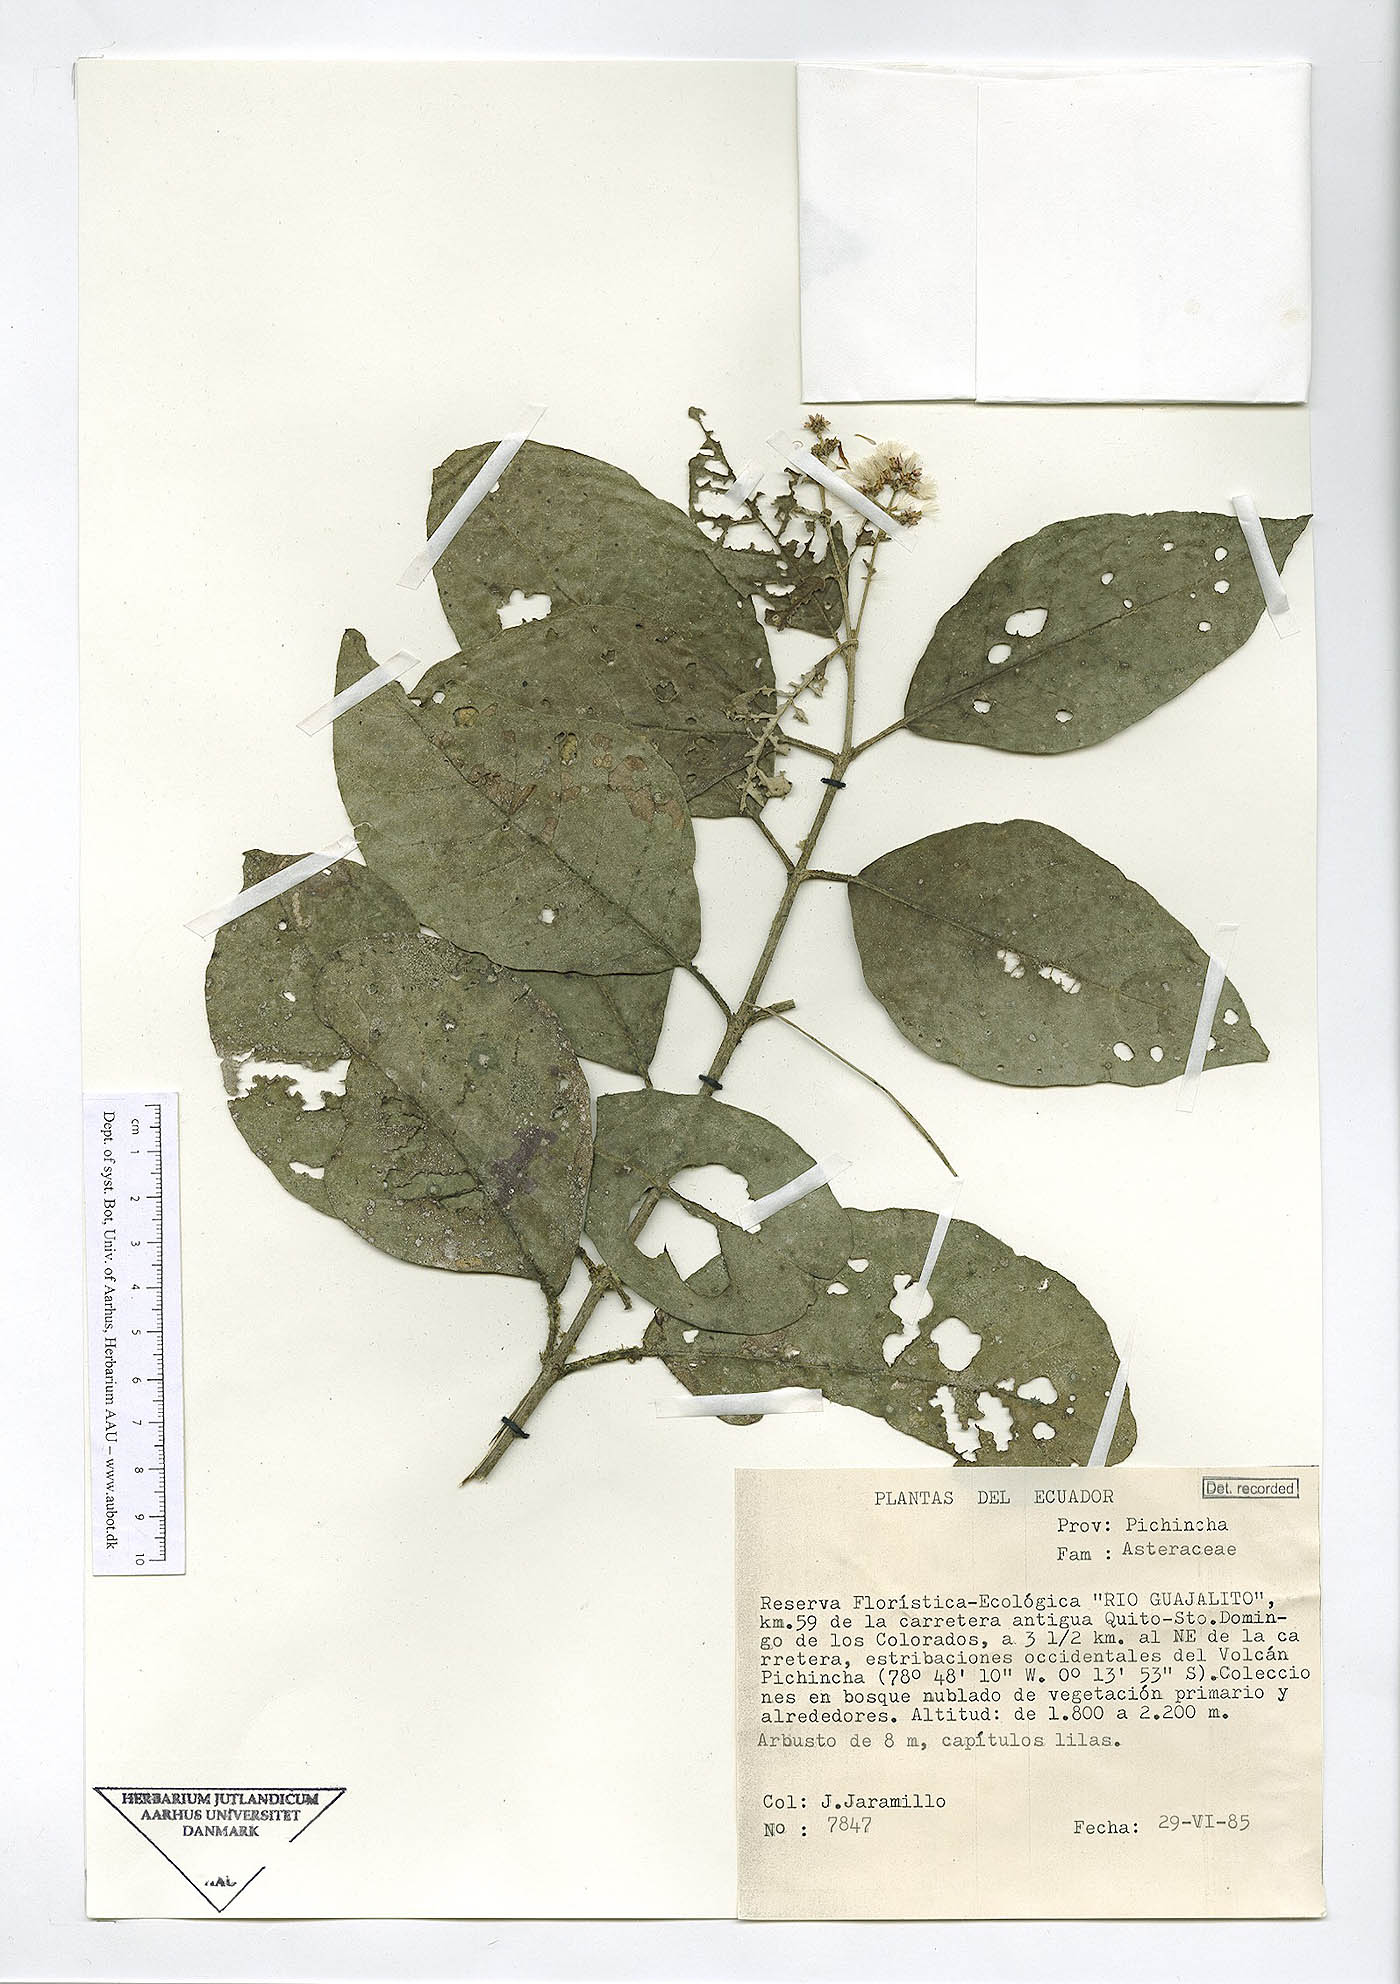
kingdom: Plantae
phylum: Tracheophyta
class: Magnoliopsida
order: Asterales
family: Asteraceae
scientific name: Asteraceae
